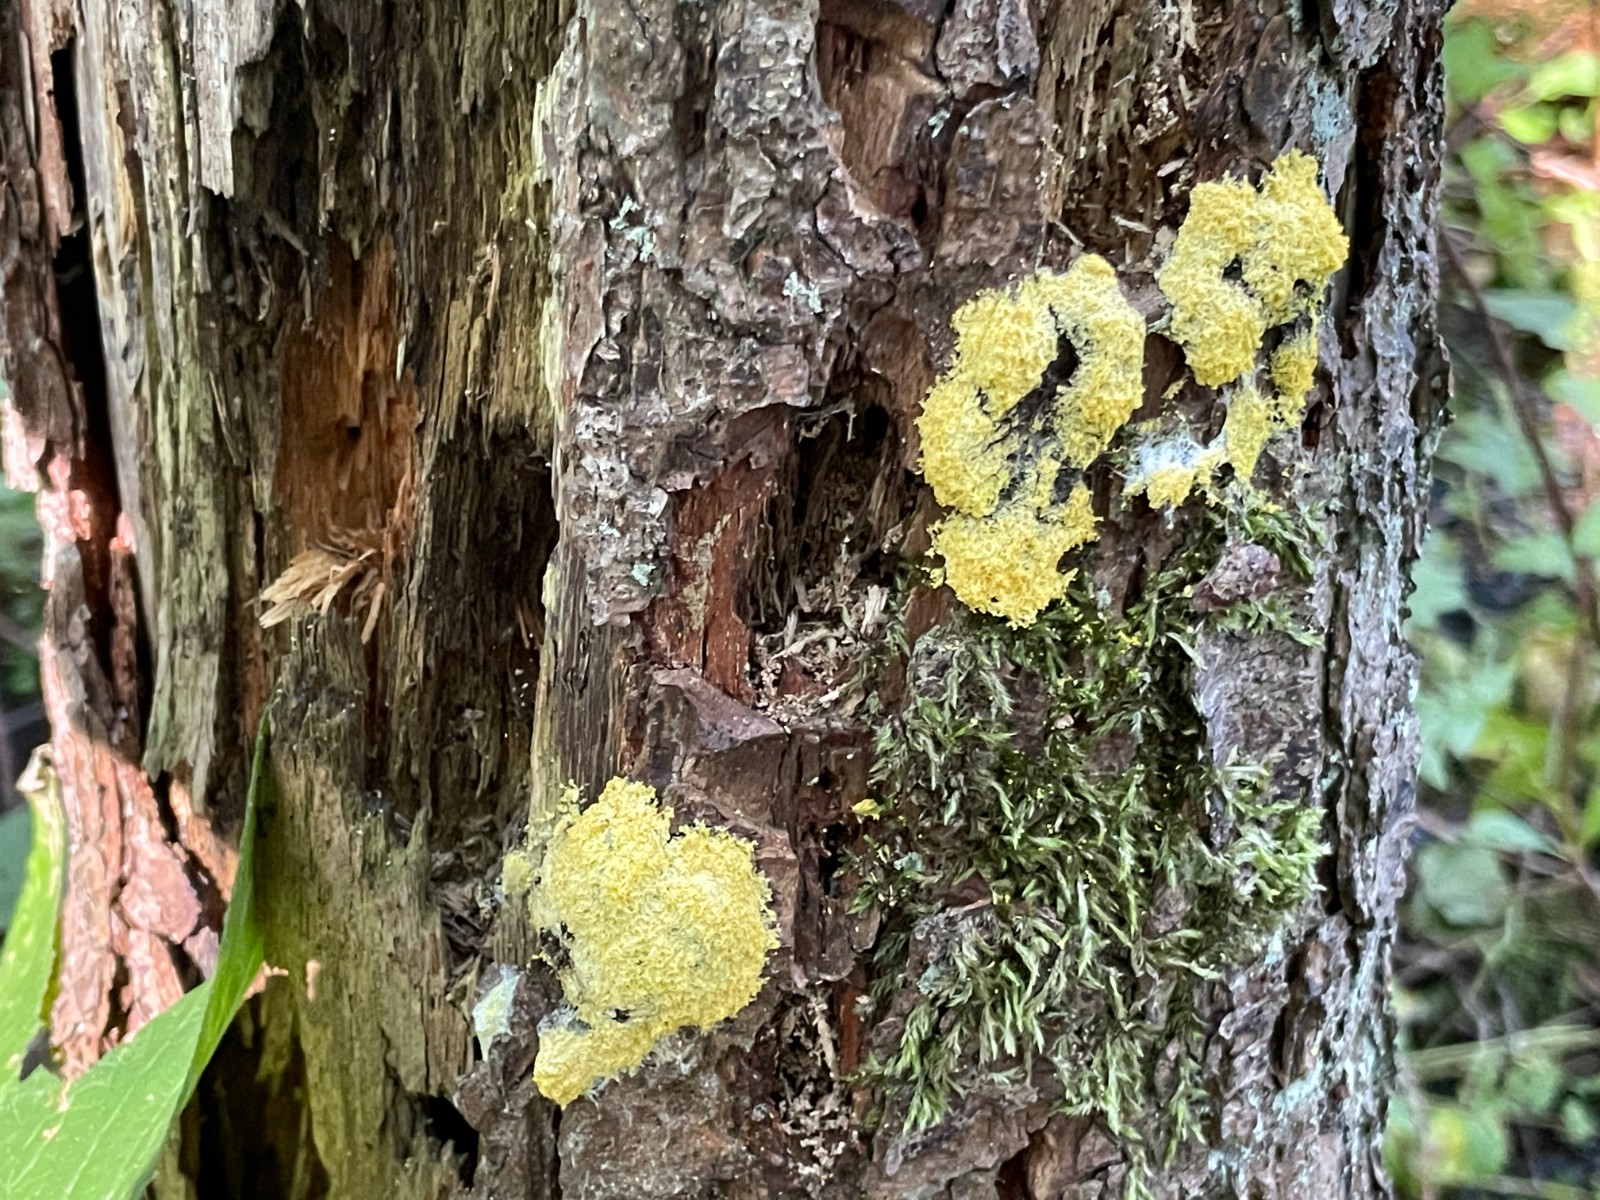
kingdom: Protozoa
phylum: Mycetozoa
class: Myxomycetes
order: Physarales
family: Physaraceae
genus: Fuligo
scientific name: Fuligo septica
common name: gul troldsmør
